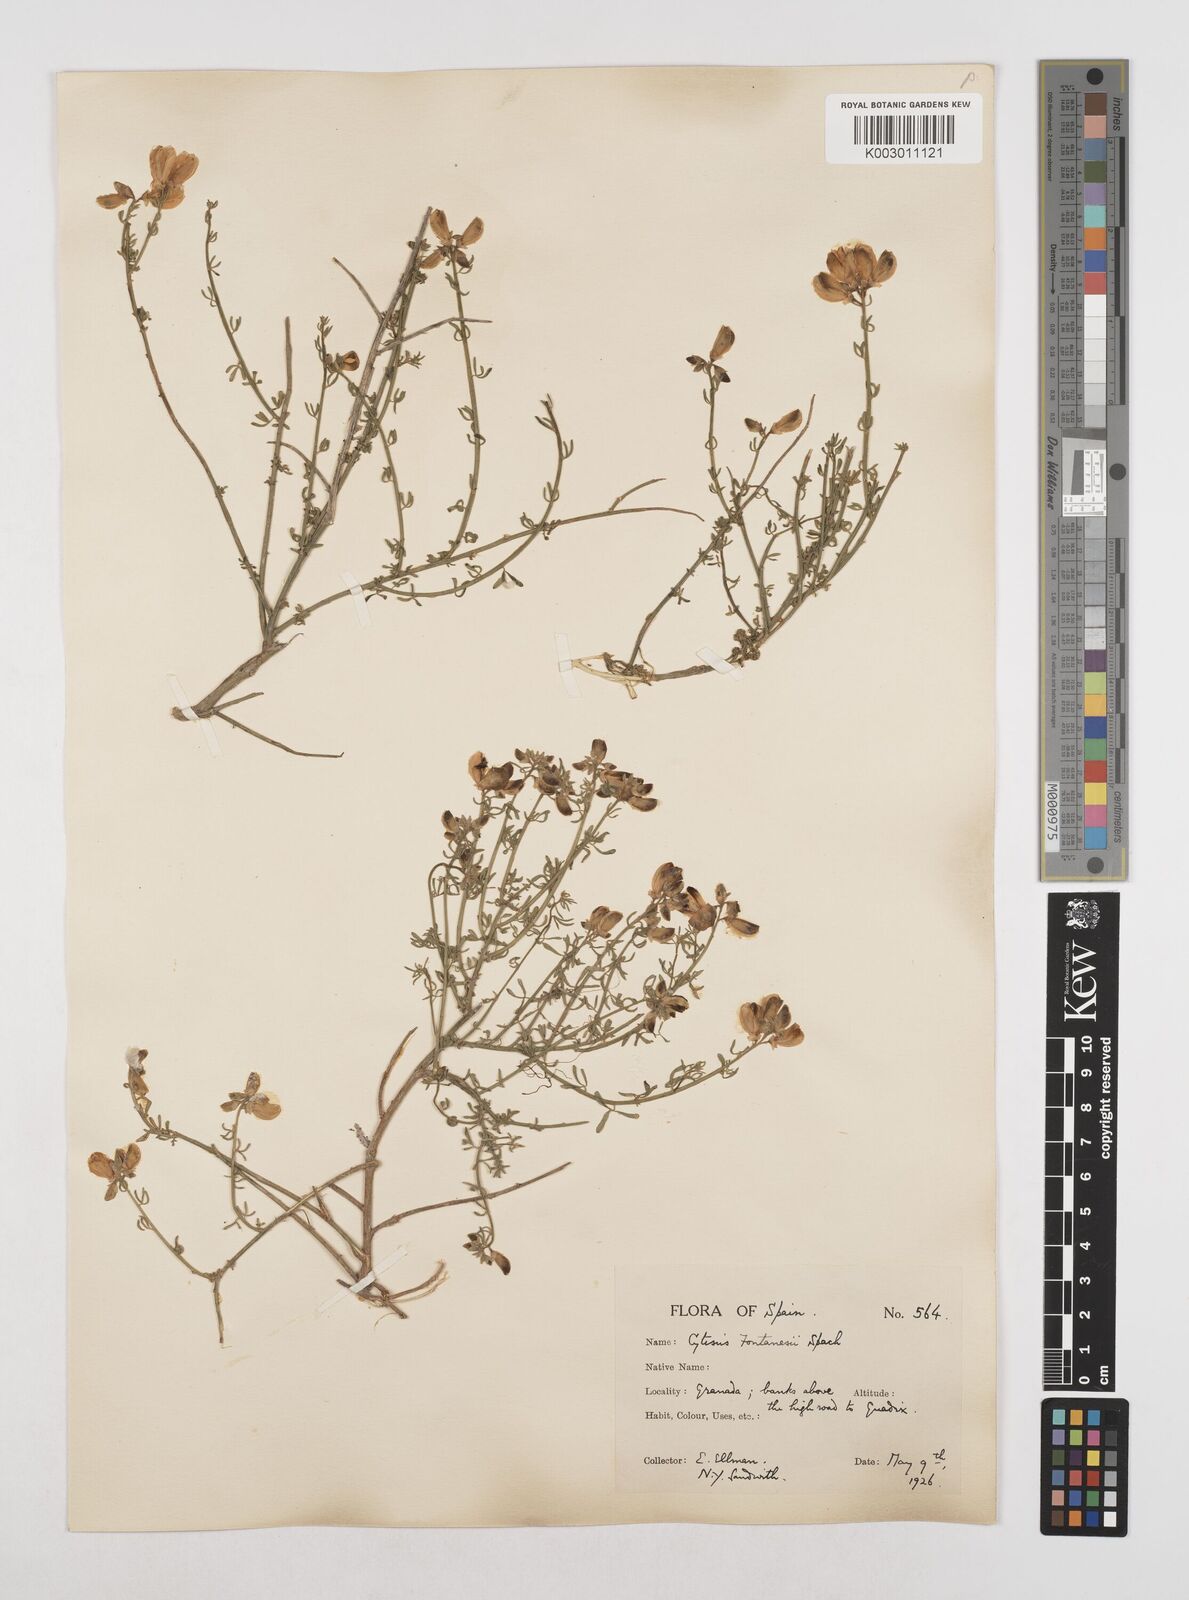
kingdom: Plantae
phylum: Tracheophyta
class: Magnoliopsida
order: Fabales
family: Fabaceae
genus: Cytisus
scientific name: Cytisus fontanesii
